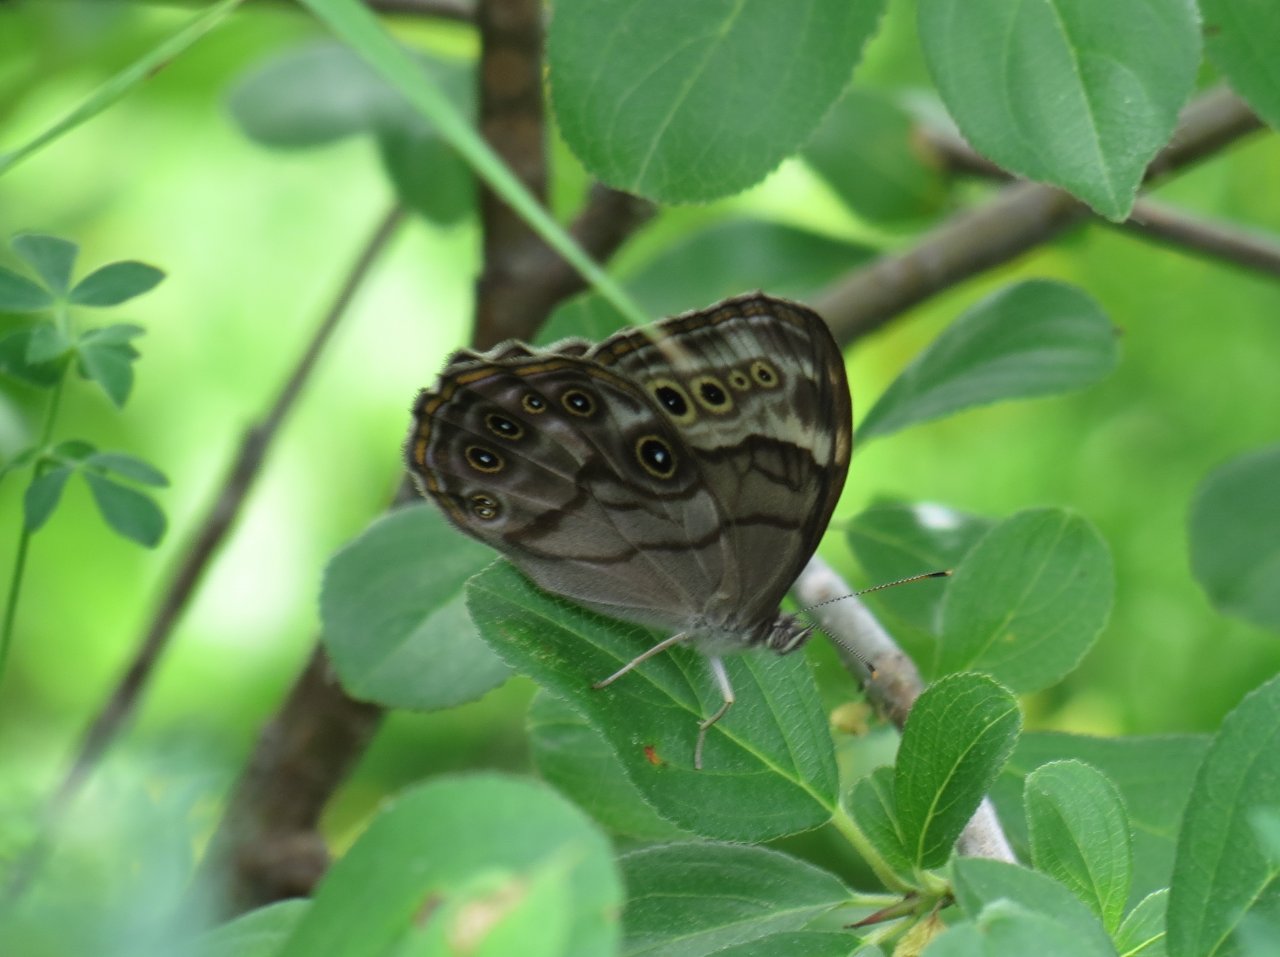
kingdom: Animalia
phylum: Arthropoda
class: Insecta
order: Lepidoptera
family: Nymphalidae
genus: Lethe
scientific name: Lethe anthedon
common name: Northern Pearly-Eye
